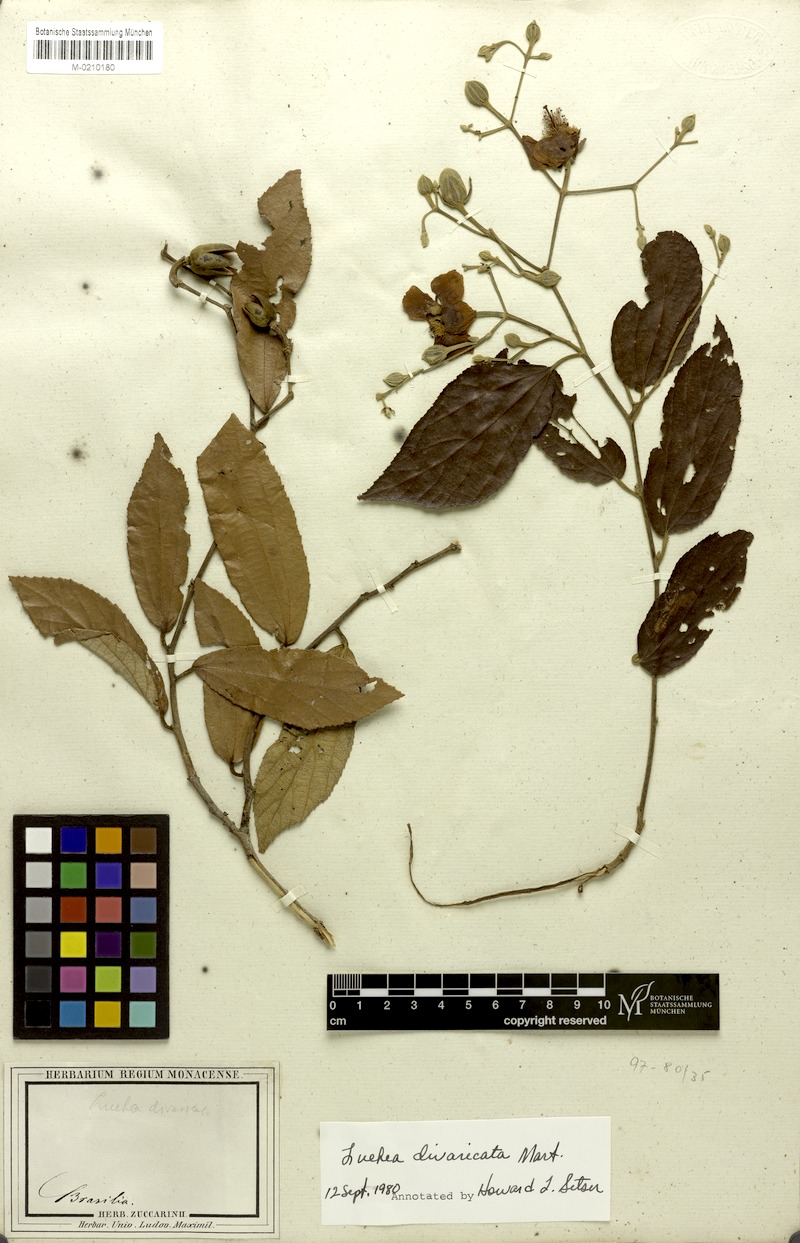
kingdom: Plantae
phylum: Tracheophyta
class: Magnoliopsida
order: Malvales
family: Malvaceae
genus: Luehea
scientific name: Luehea divaricata
